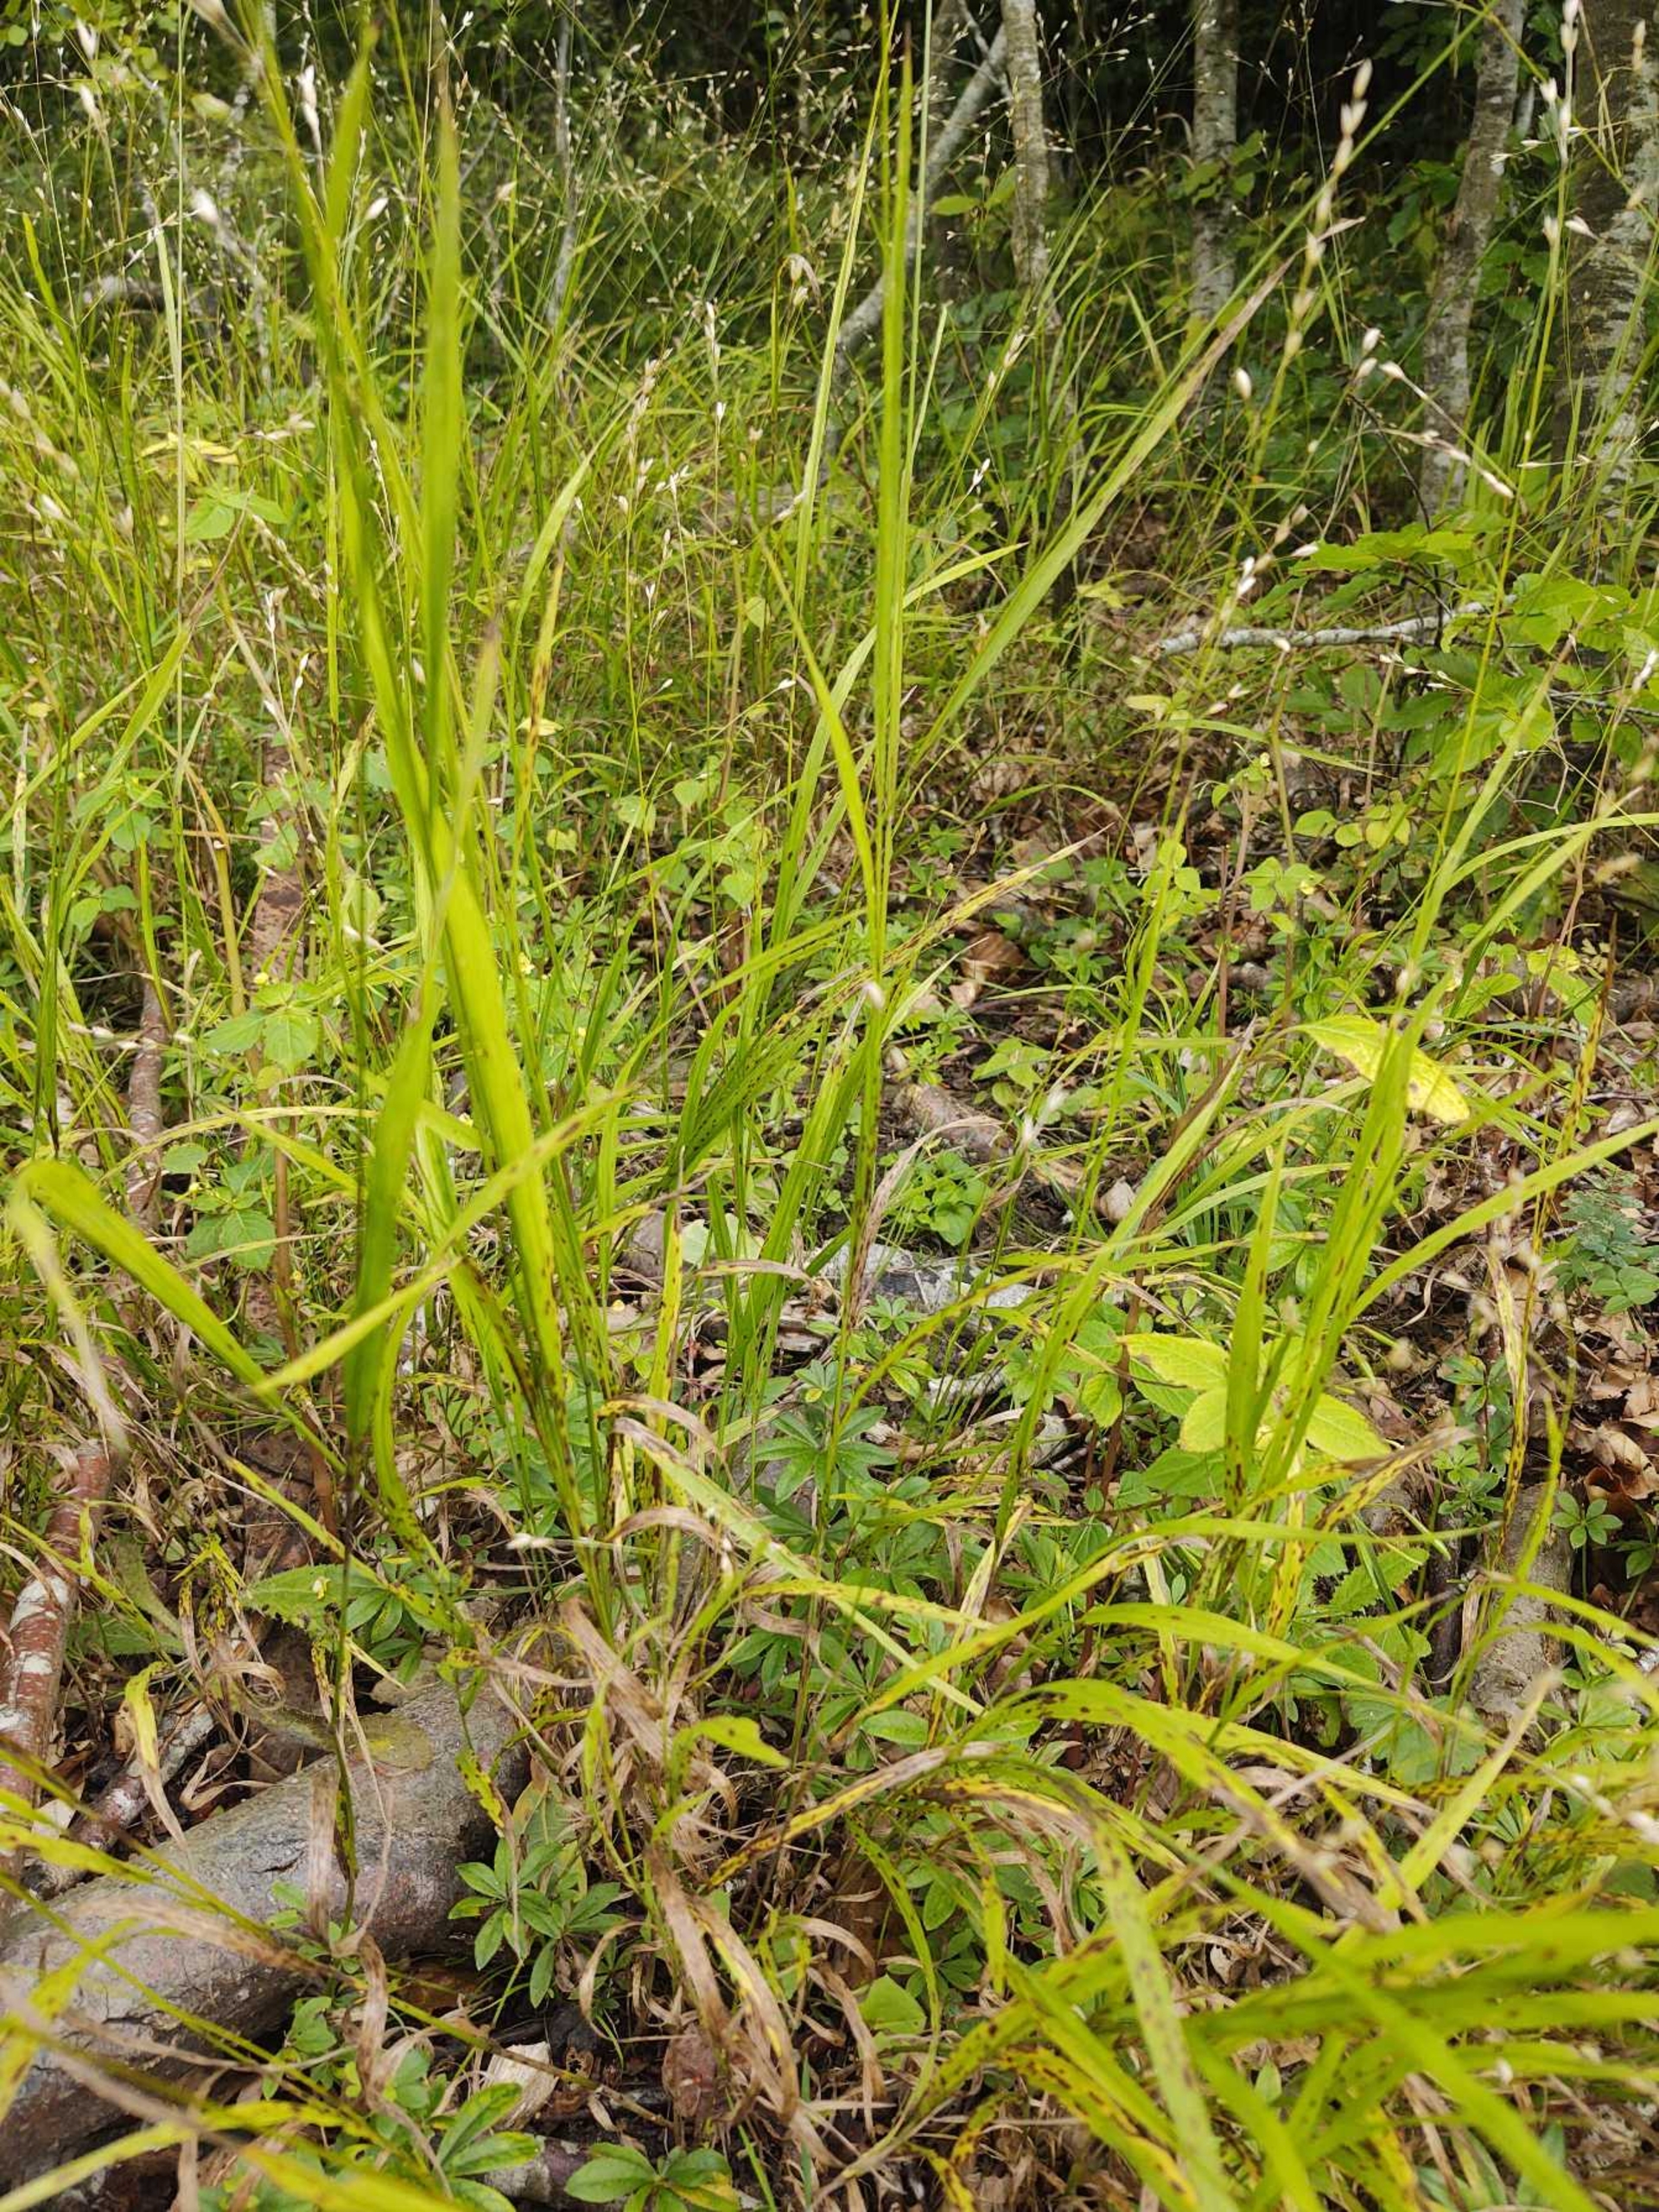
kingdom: Plantae
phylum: Tracheophyta
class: Liliopsida
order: Poales
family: Poaceae
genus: Melica
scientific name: Melica uniflora
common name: Enblomstret flitteraks
